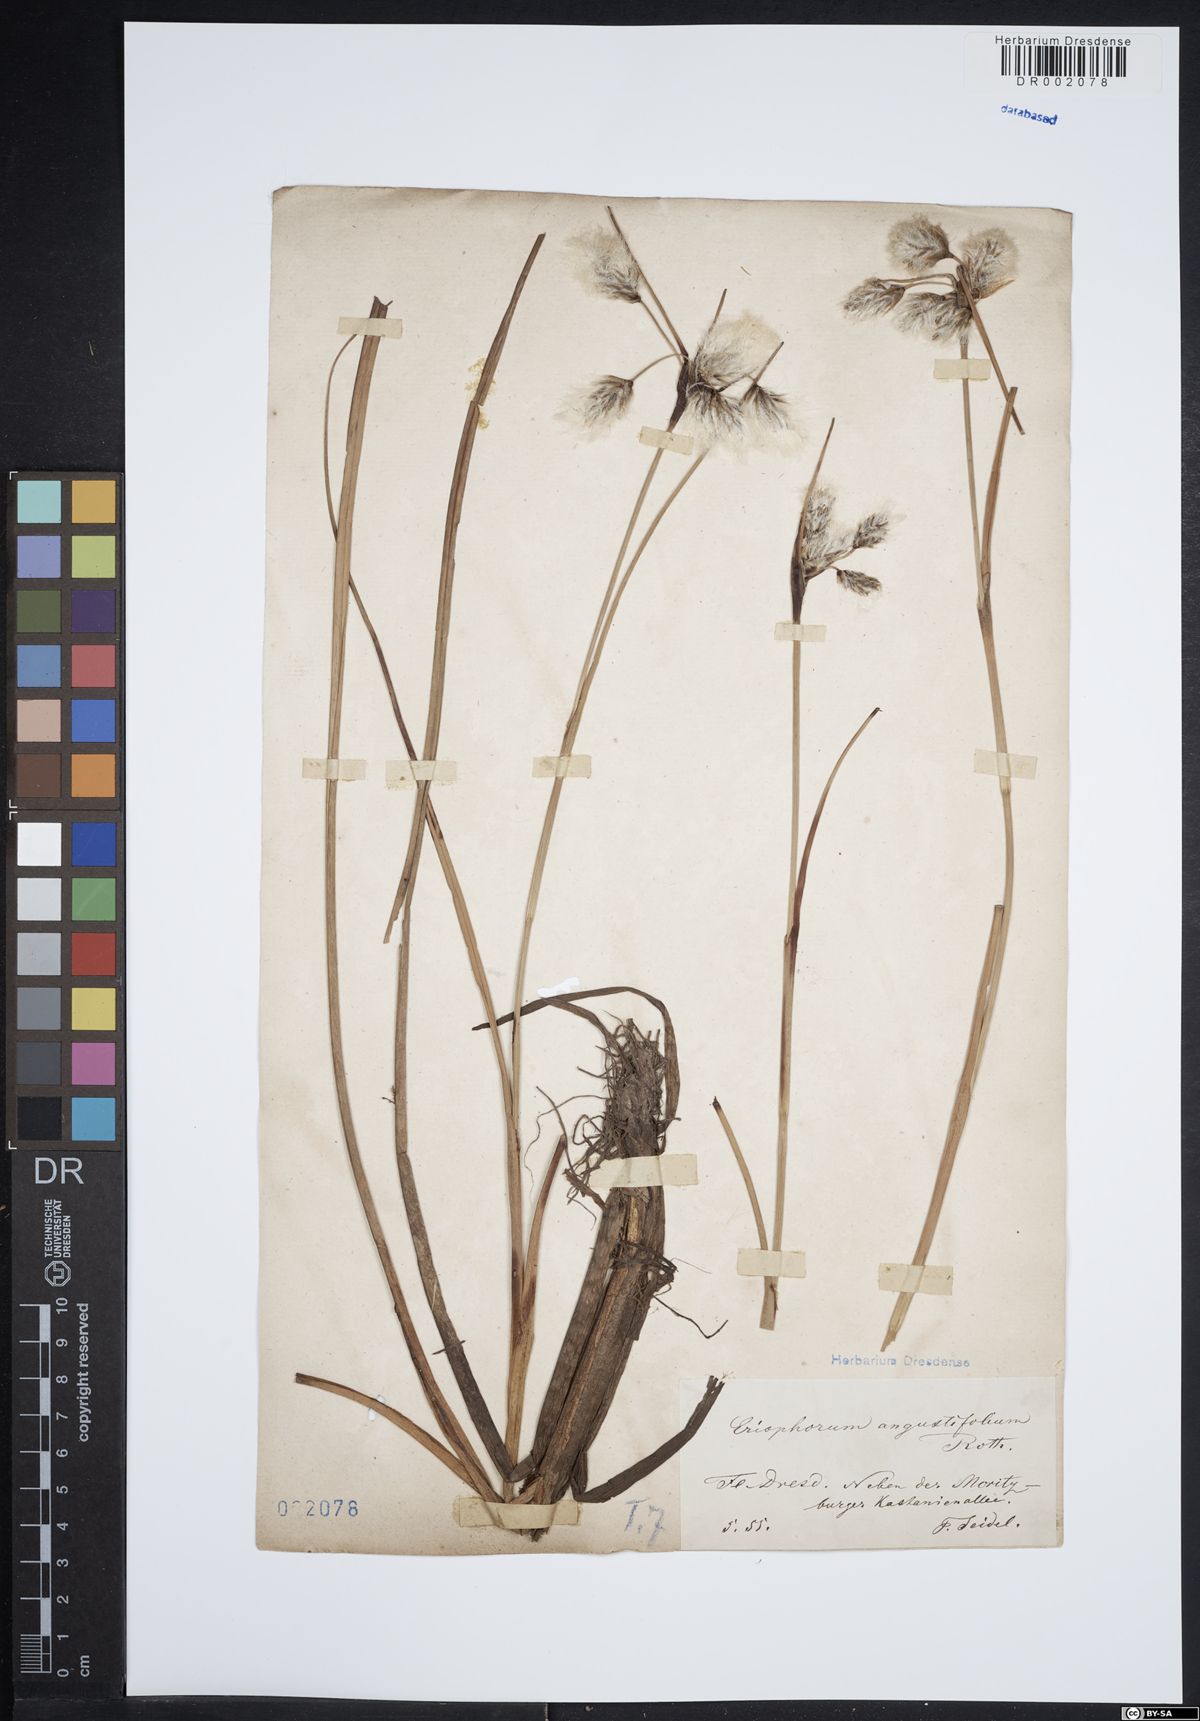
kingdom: Plantae
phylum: Tracheophyta
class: Liliopsida
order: Poales
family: Cyperaceae
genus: Eriophorum
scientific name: Eriophorum angustifolium
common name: Common cottongrass
